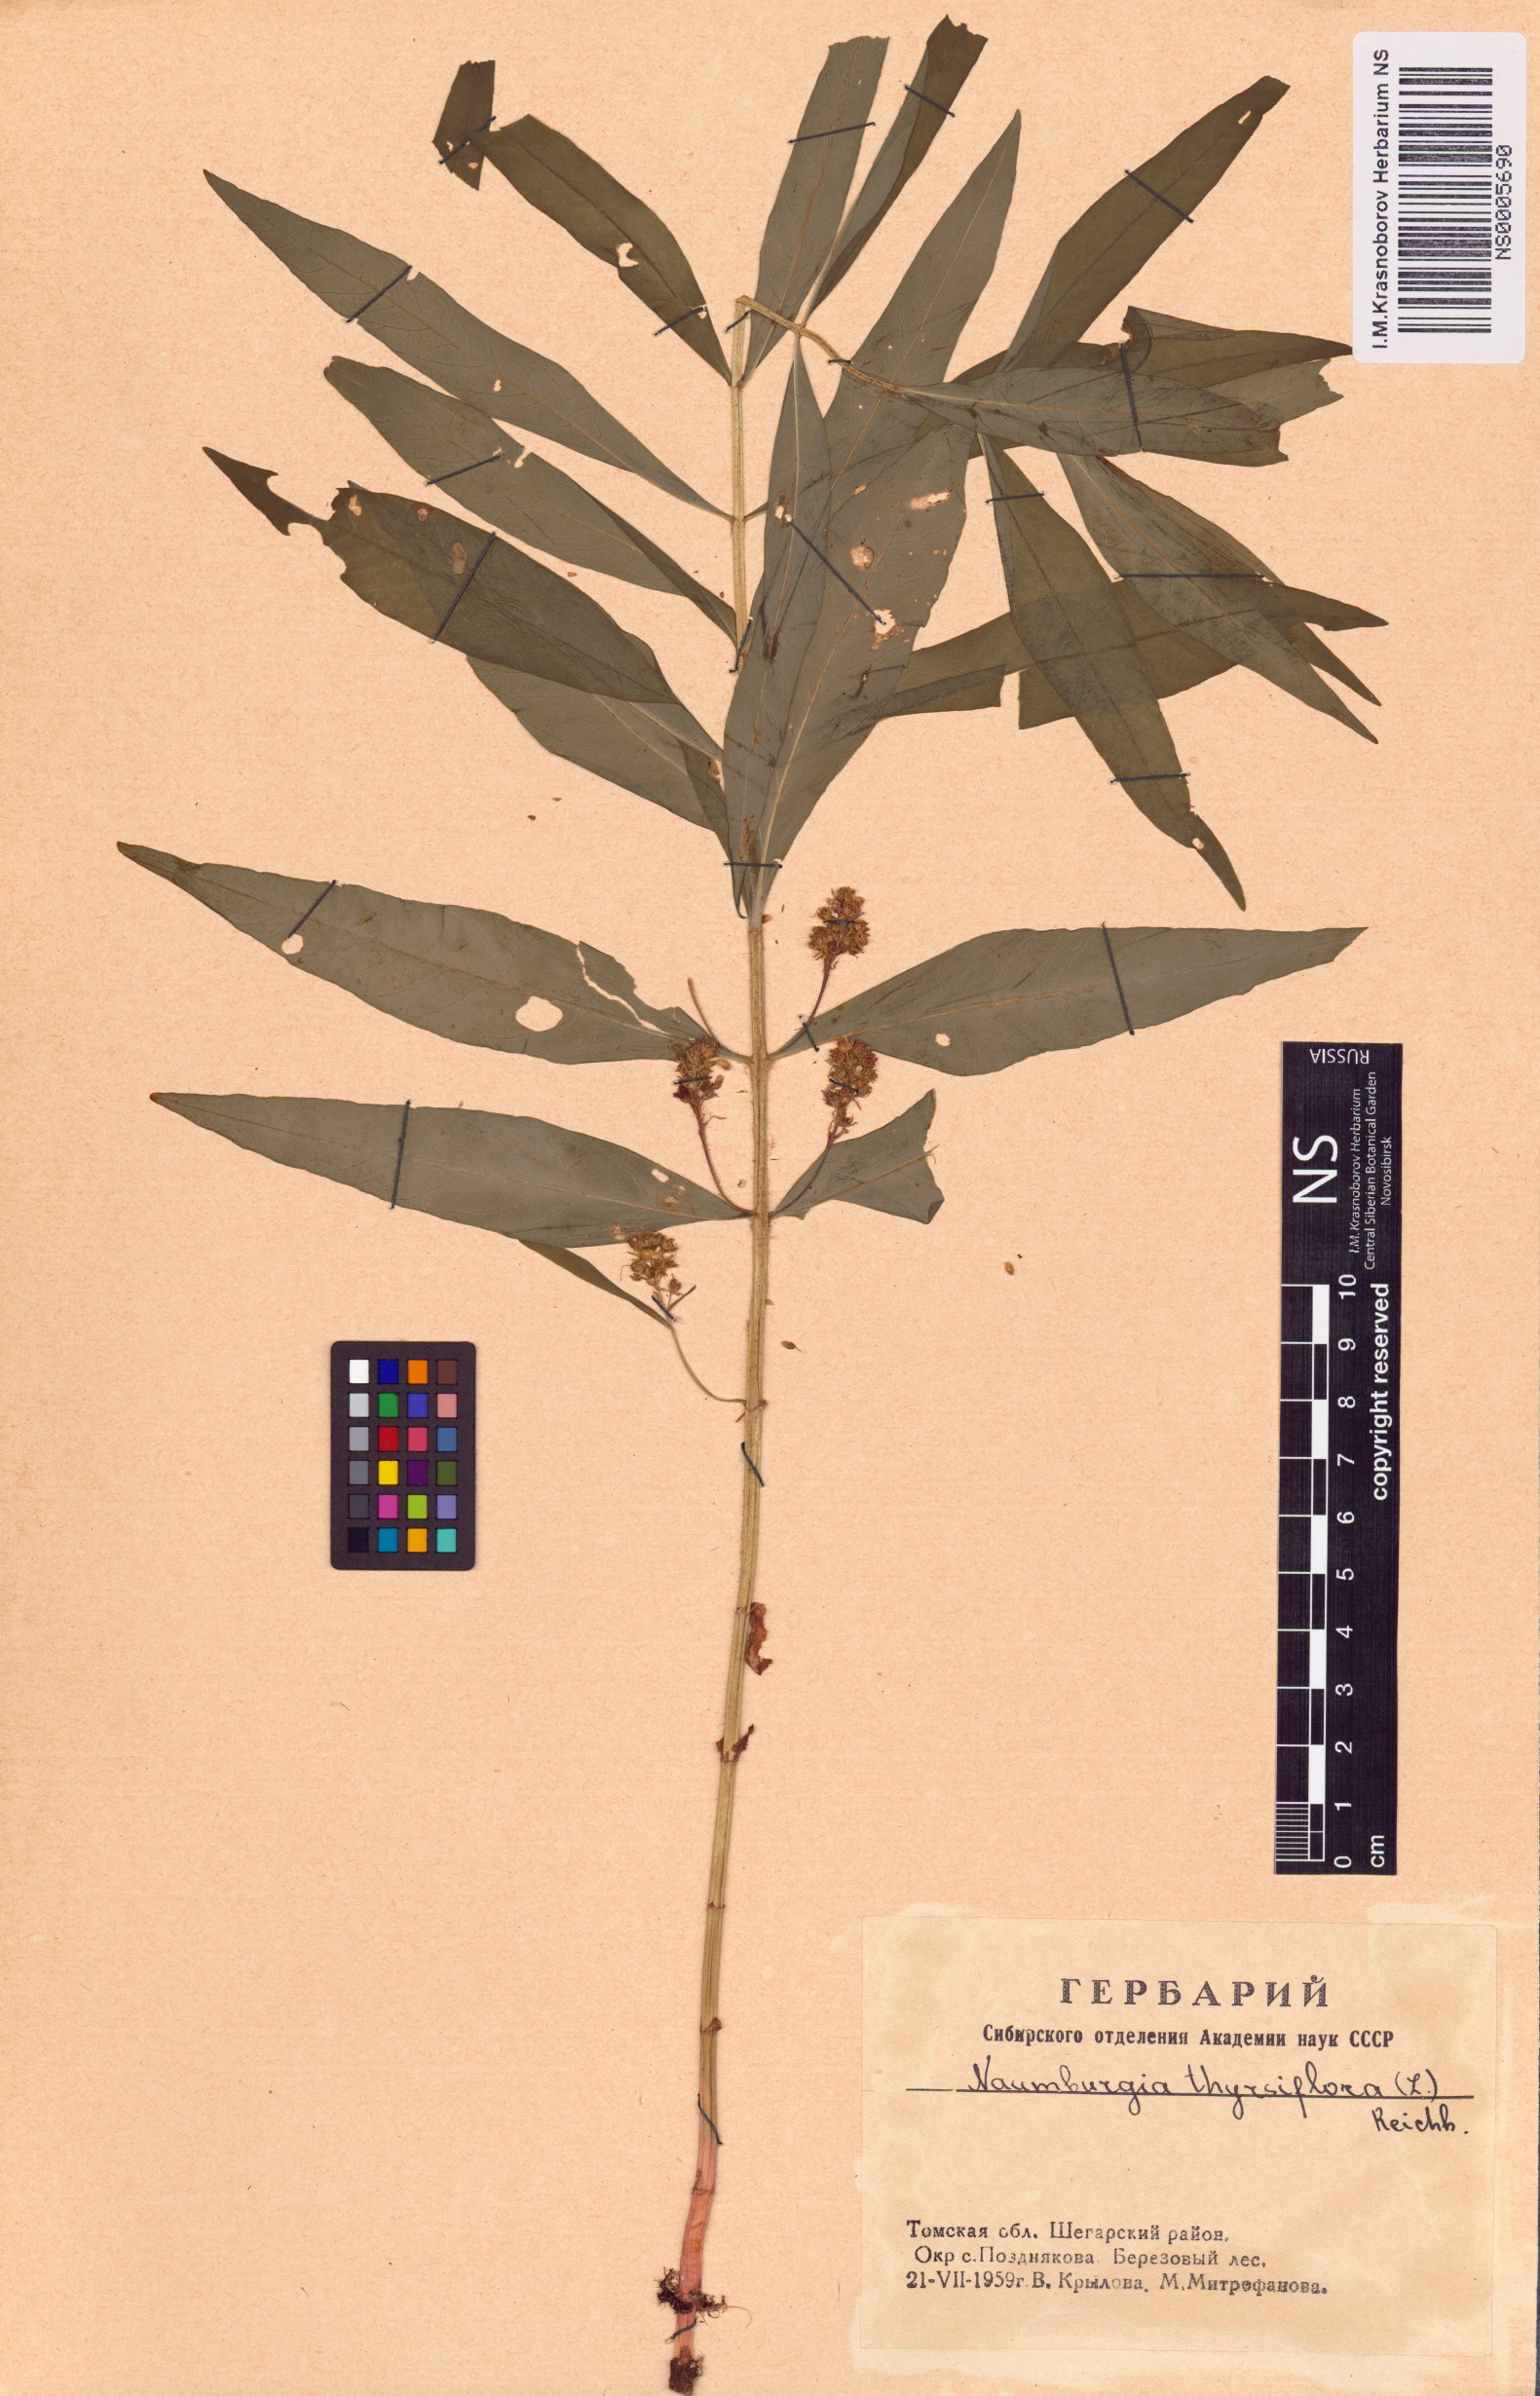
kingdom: Plantae
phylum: Tracheophyta
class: Magnoliopsida
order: Ericales
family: Primulaceae
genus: Lysimachia
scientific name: Lysimachia thyrsiflora
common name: Tufted loosestrife
